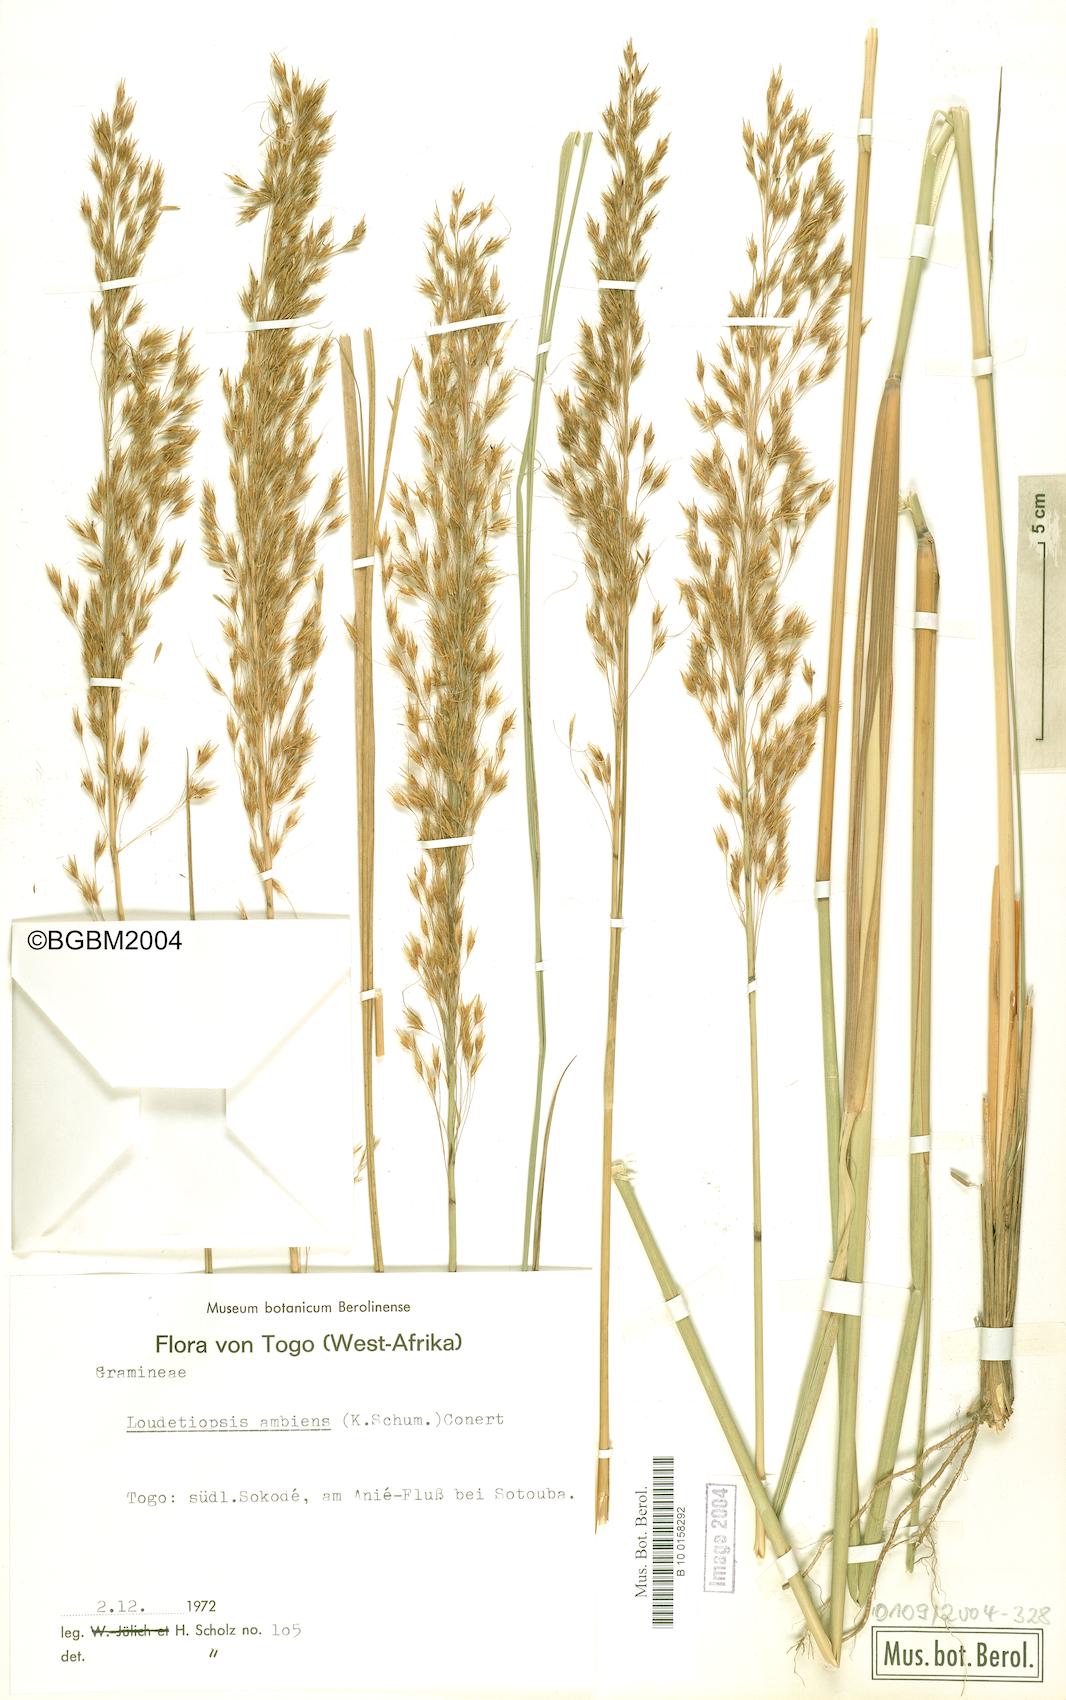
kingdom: Plantae
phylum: Tracheophyta
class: Liliopsida
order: Poales
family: Poaceae
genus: Loudetiopsis
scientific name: Loudetiopsis ambiens
